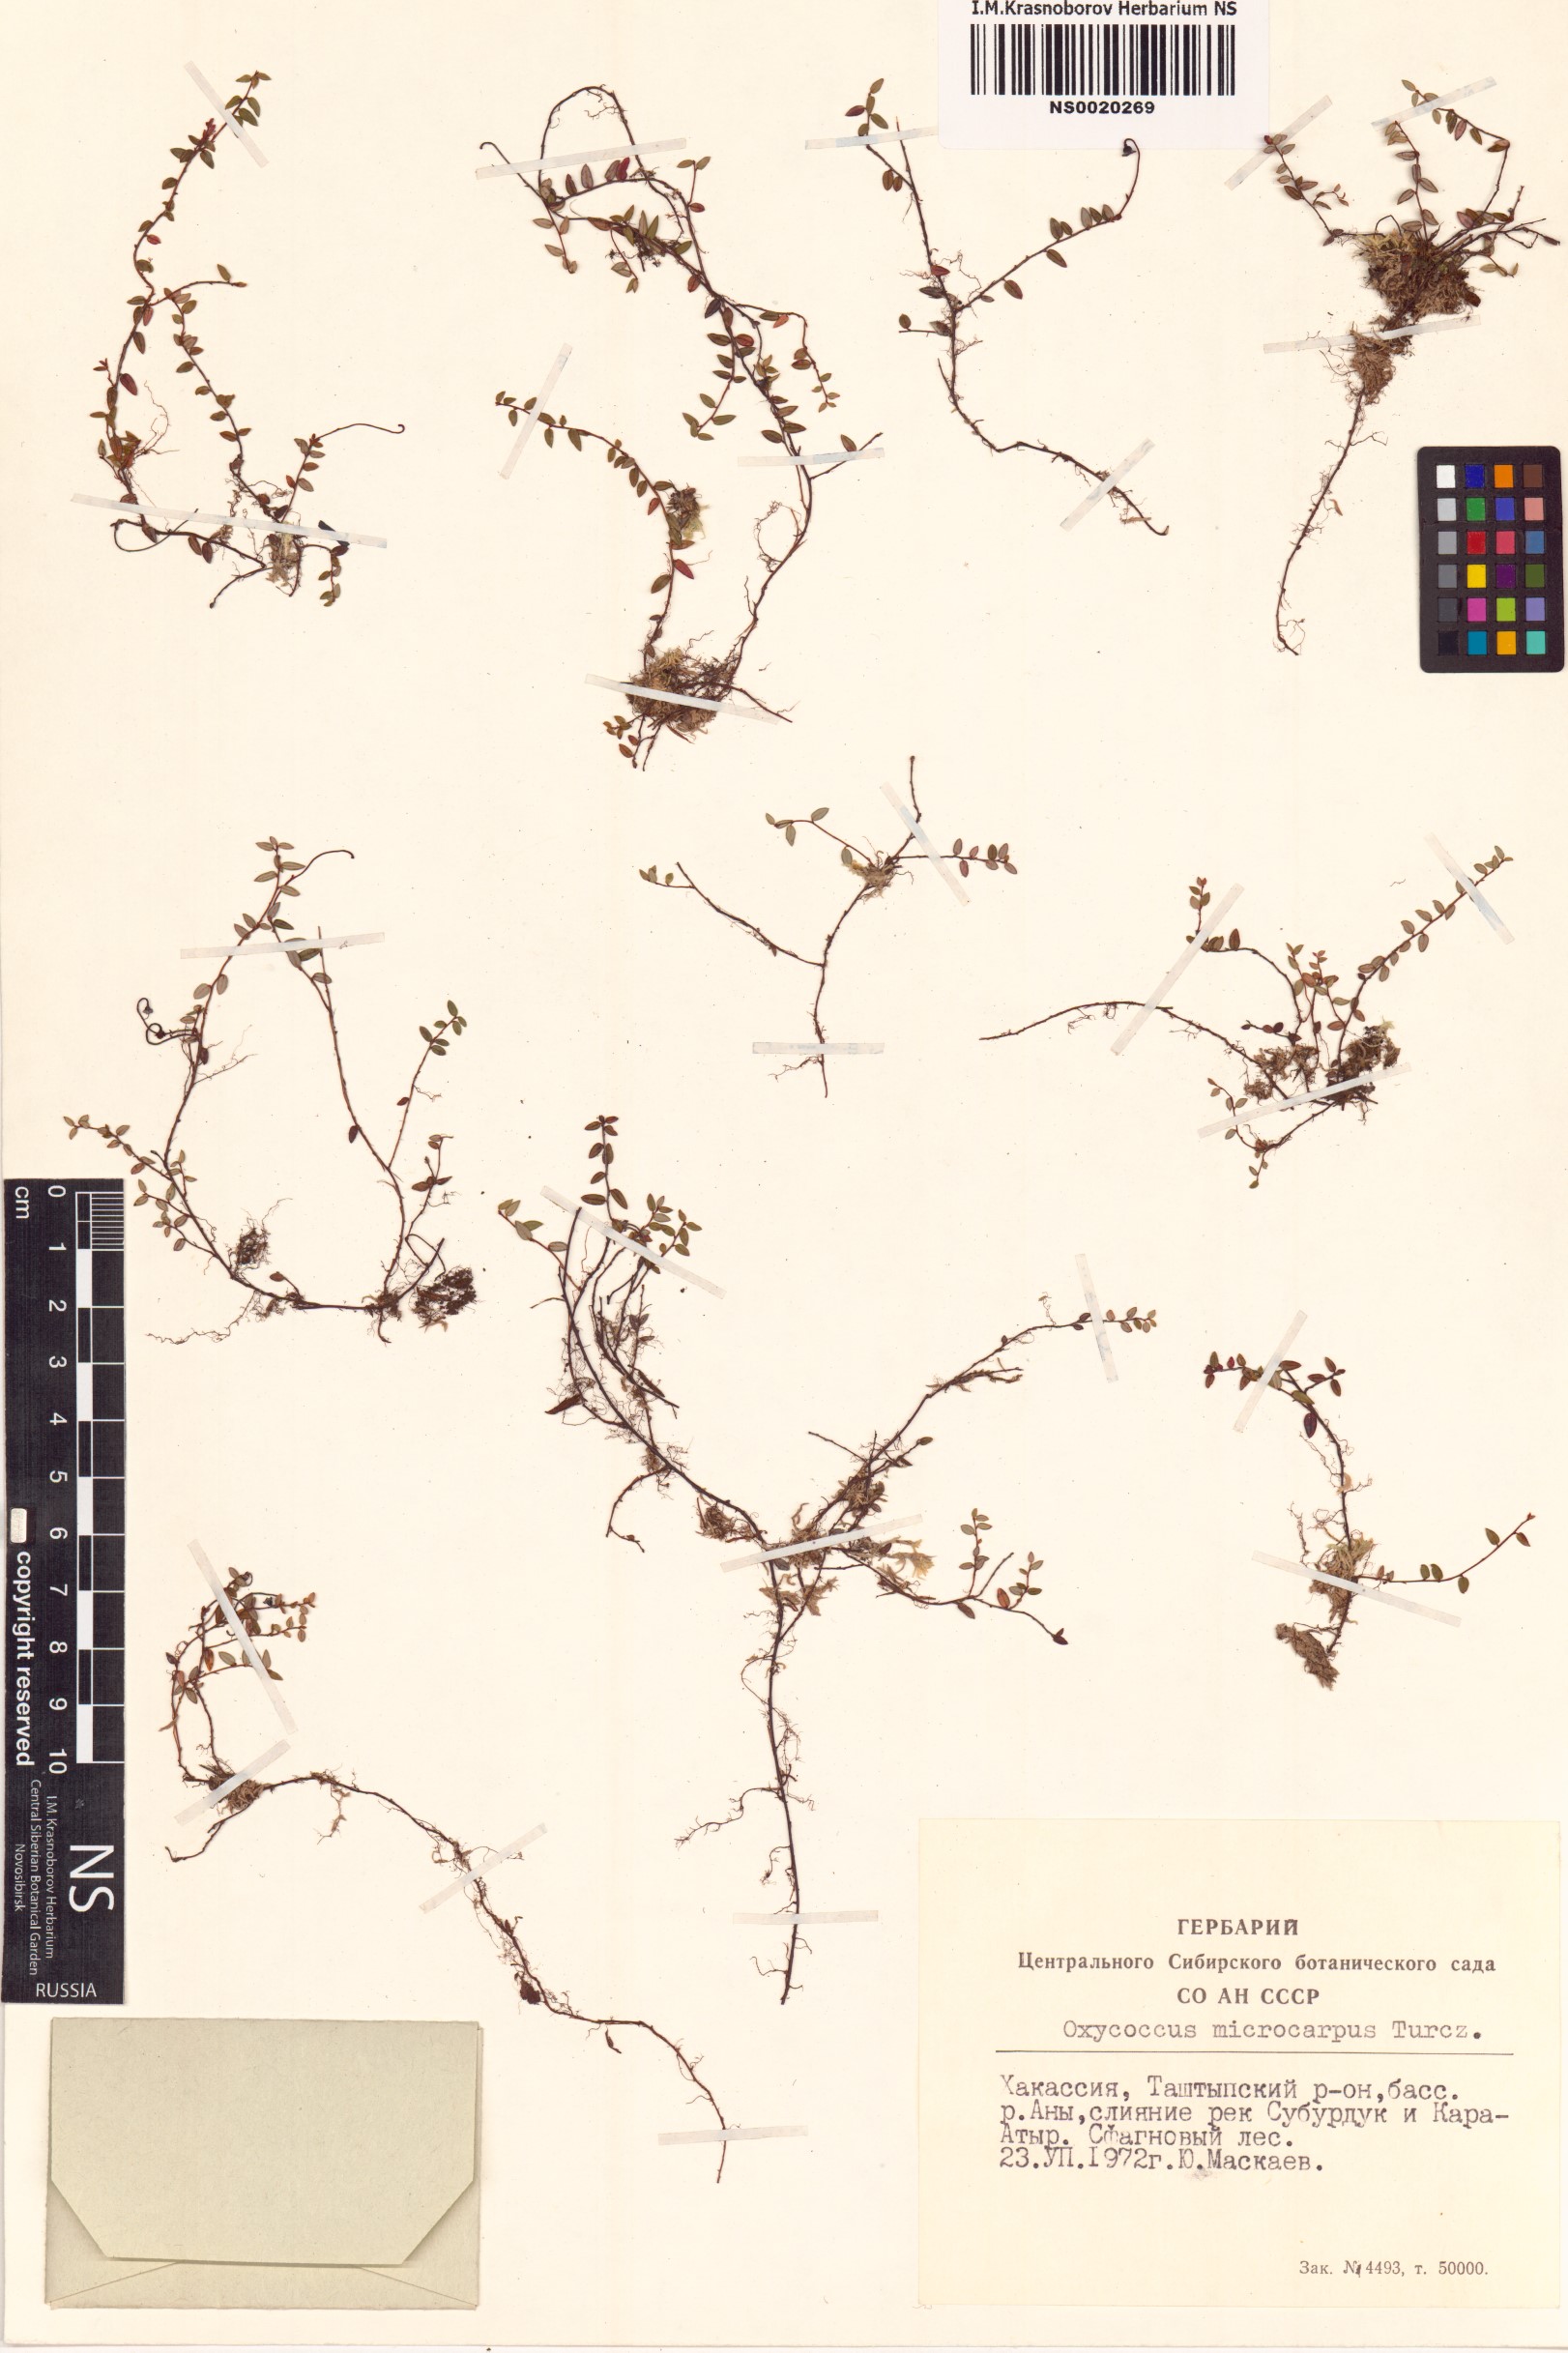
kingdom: Plantae
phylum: Tracheophyta
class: Magnoliopsida
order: Ericales
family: Ericaceae
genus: Vaccinium
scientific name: Vaccinium microcarpum
